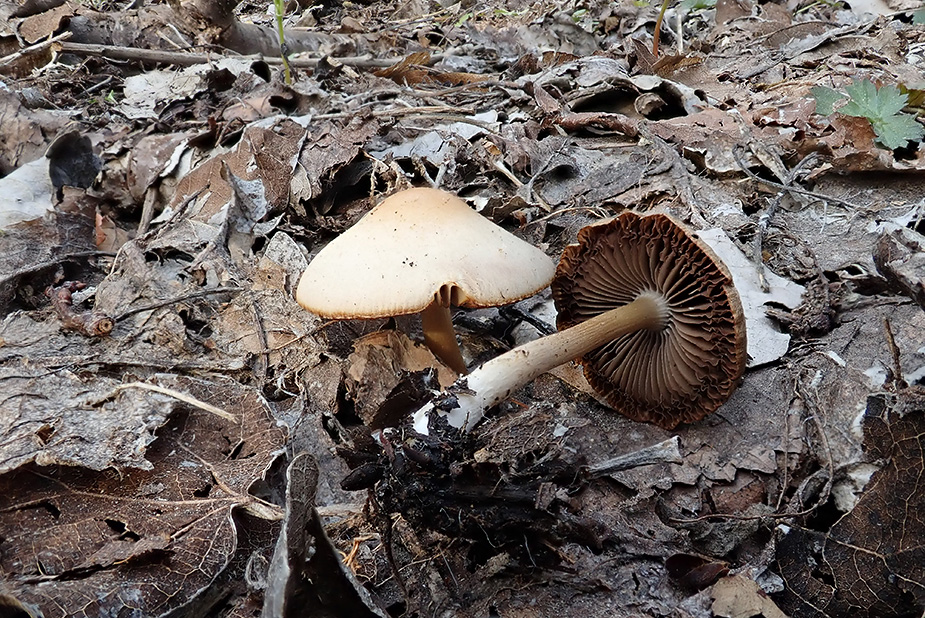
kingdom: Fungi
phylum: Basidiomycota
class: Agaricomycetes
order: Agaricales
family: Psathyrellaceae
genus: Psathyrella
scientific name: Psathyrella spadiceogrisea
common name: gråbrun mørkhat
